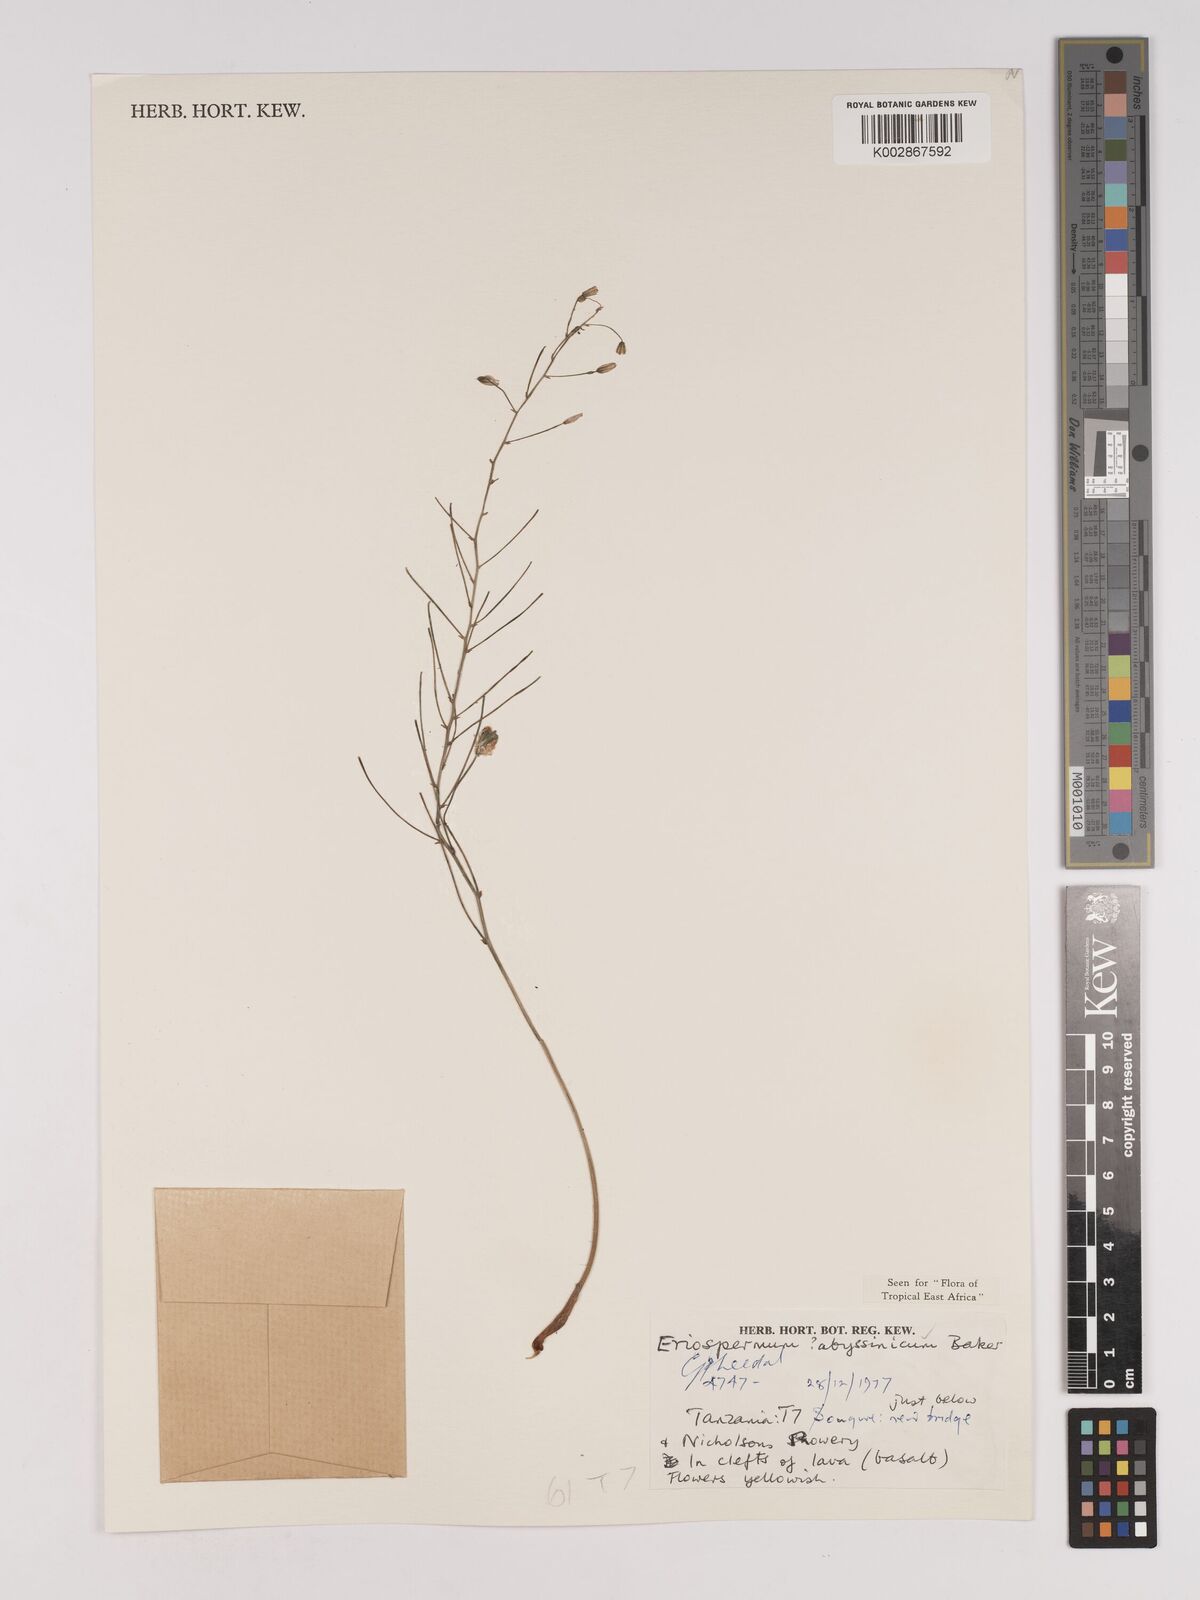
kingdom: Plantae
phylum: Tracheophyta
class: Liliopsida
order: Asparagales
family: Asparagaceae
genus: Eriospermum
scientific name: Eriospermum abyssinicum
